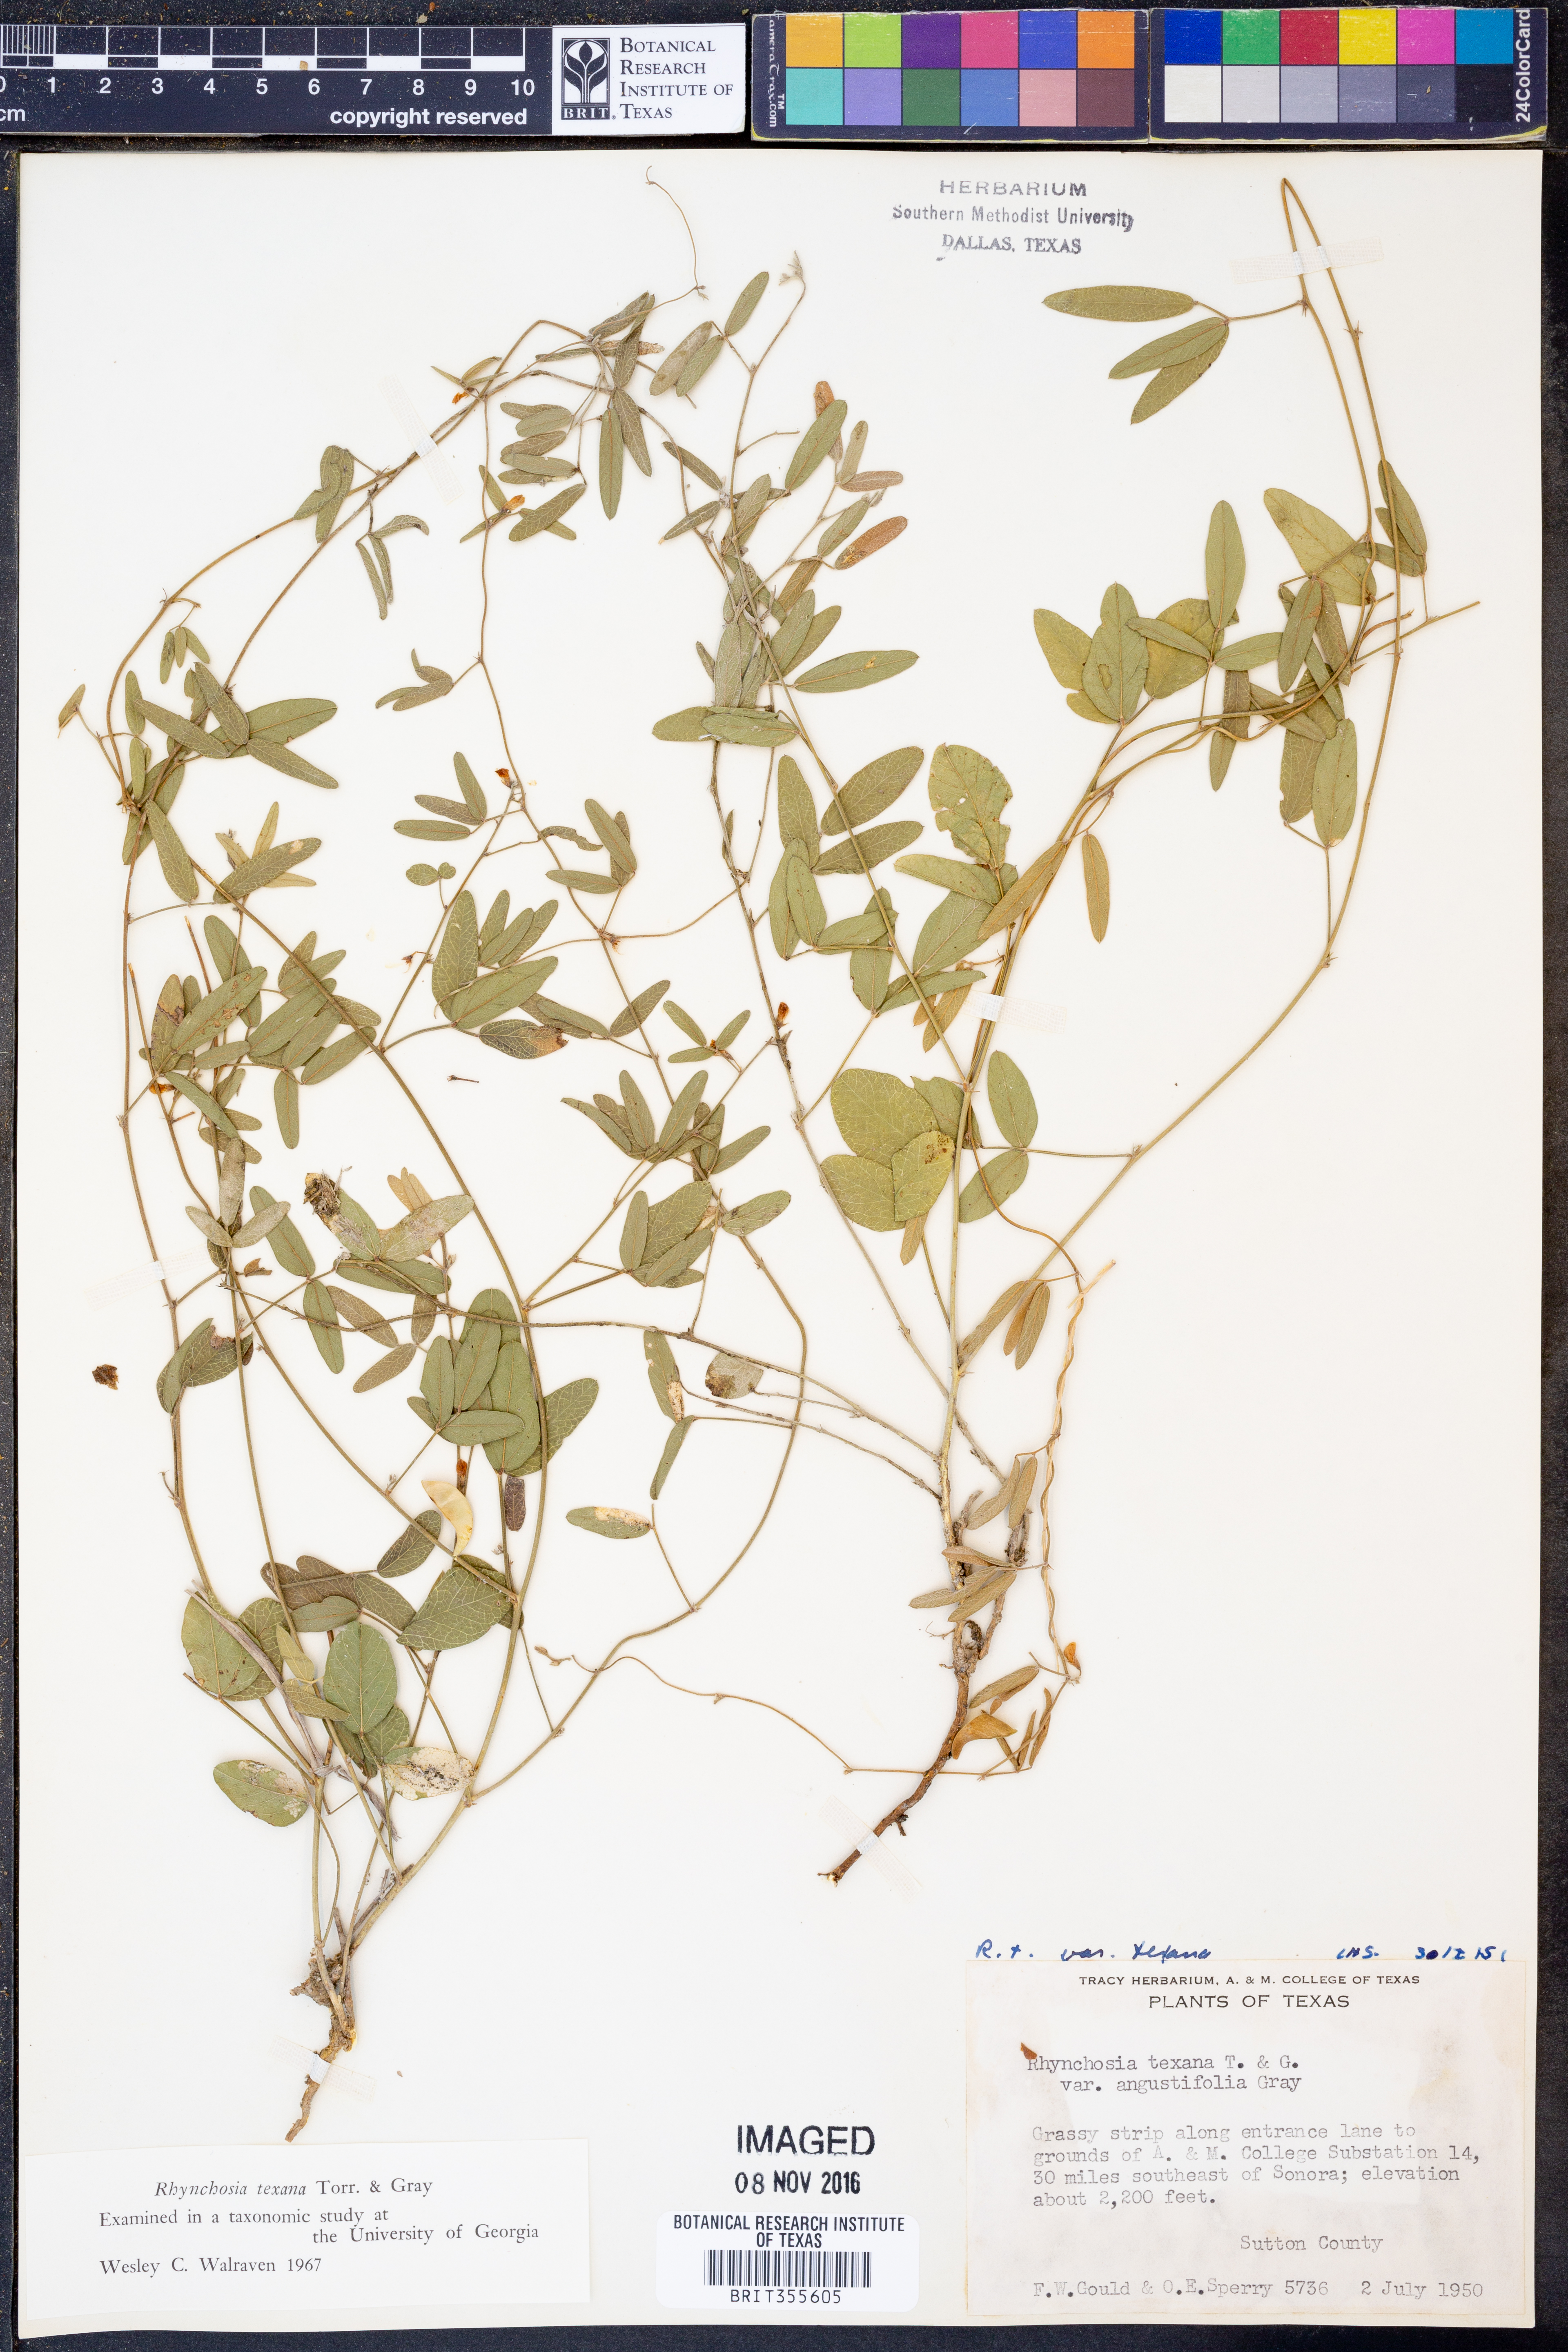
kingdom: Plantae
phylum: Tracheophyta
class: Magnoliopsida
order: Fabales
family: Fabaceae
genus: Rhynchosia
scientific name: Rhynchosia senna
